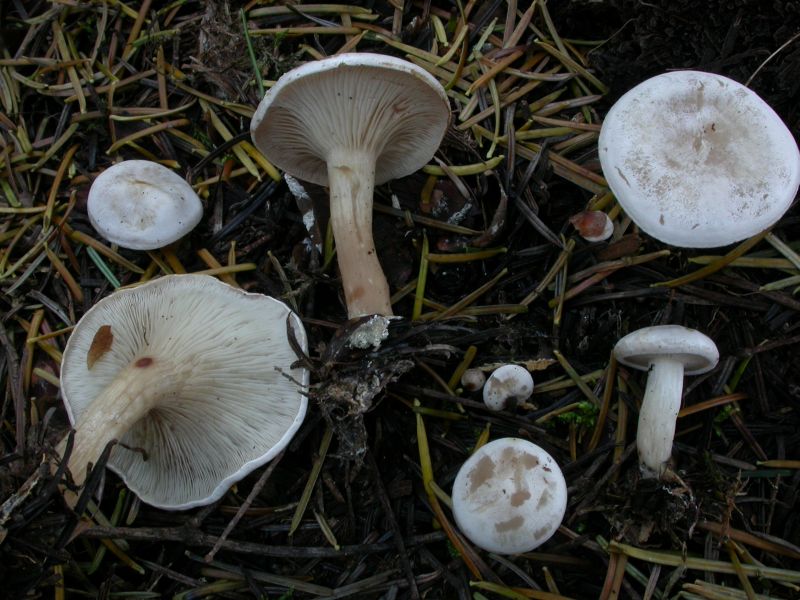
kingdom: Fungi
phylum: Basidiomycota
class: Agaricomycetes
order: Agaricales
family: Tricholomataceae
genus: Clitocybe
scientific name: Clitocybe phyllophila
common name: løv-tragthat
